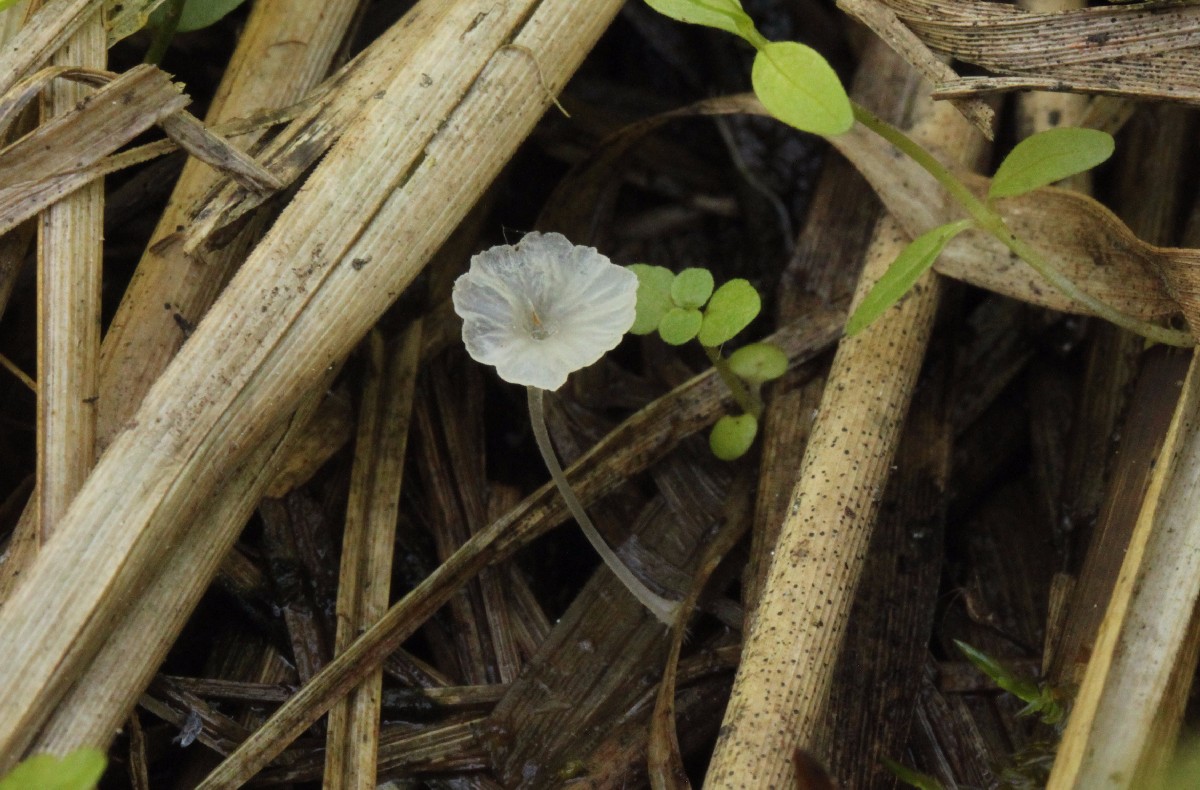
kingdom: Fungi
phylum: Basidiomycota
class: Agaricomycetes
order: Agaricales
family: Mycenaceae
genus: Hemimycena
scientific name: Hemimycena
